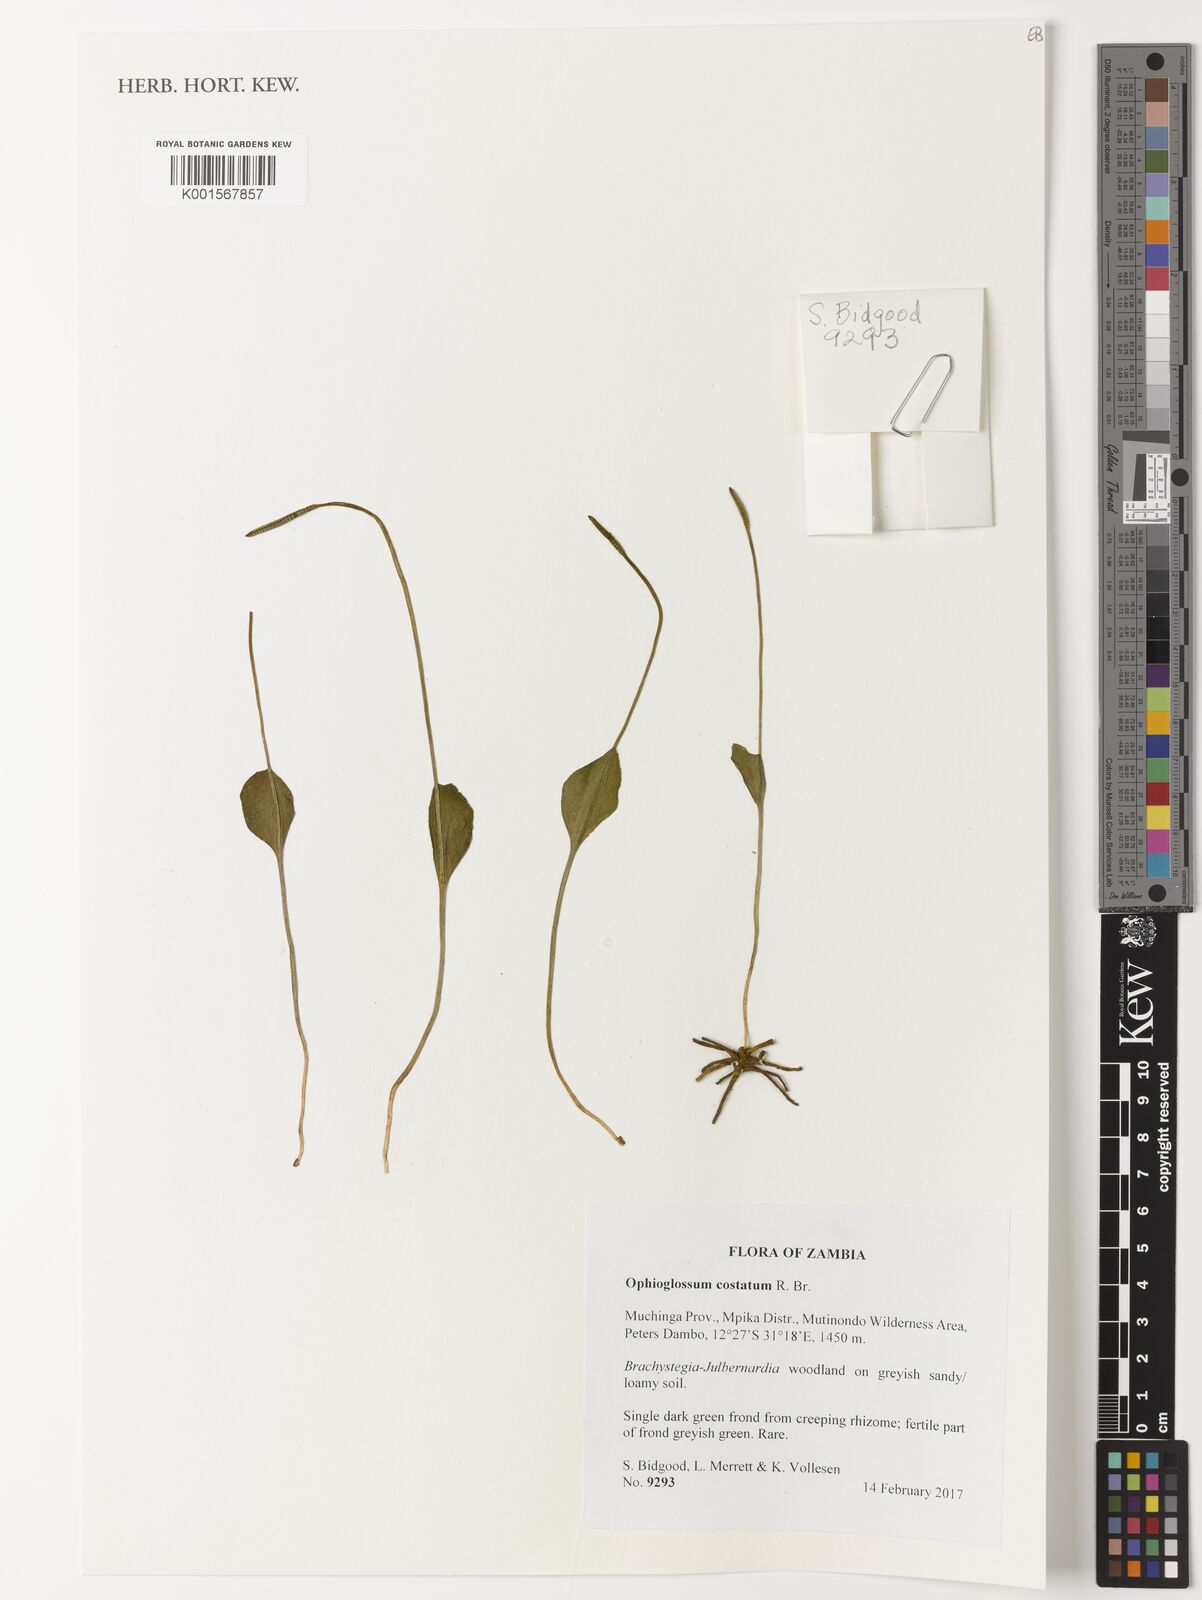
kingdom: Plantae
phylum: Tracheophyta
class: Polypodiopsida
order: Ophioglossales
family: Ophioglossaceae
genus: Ophioglossum
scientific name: Ophioglossum costatum
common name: Large adder's tongue
